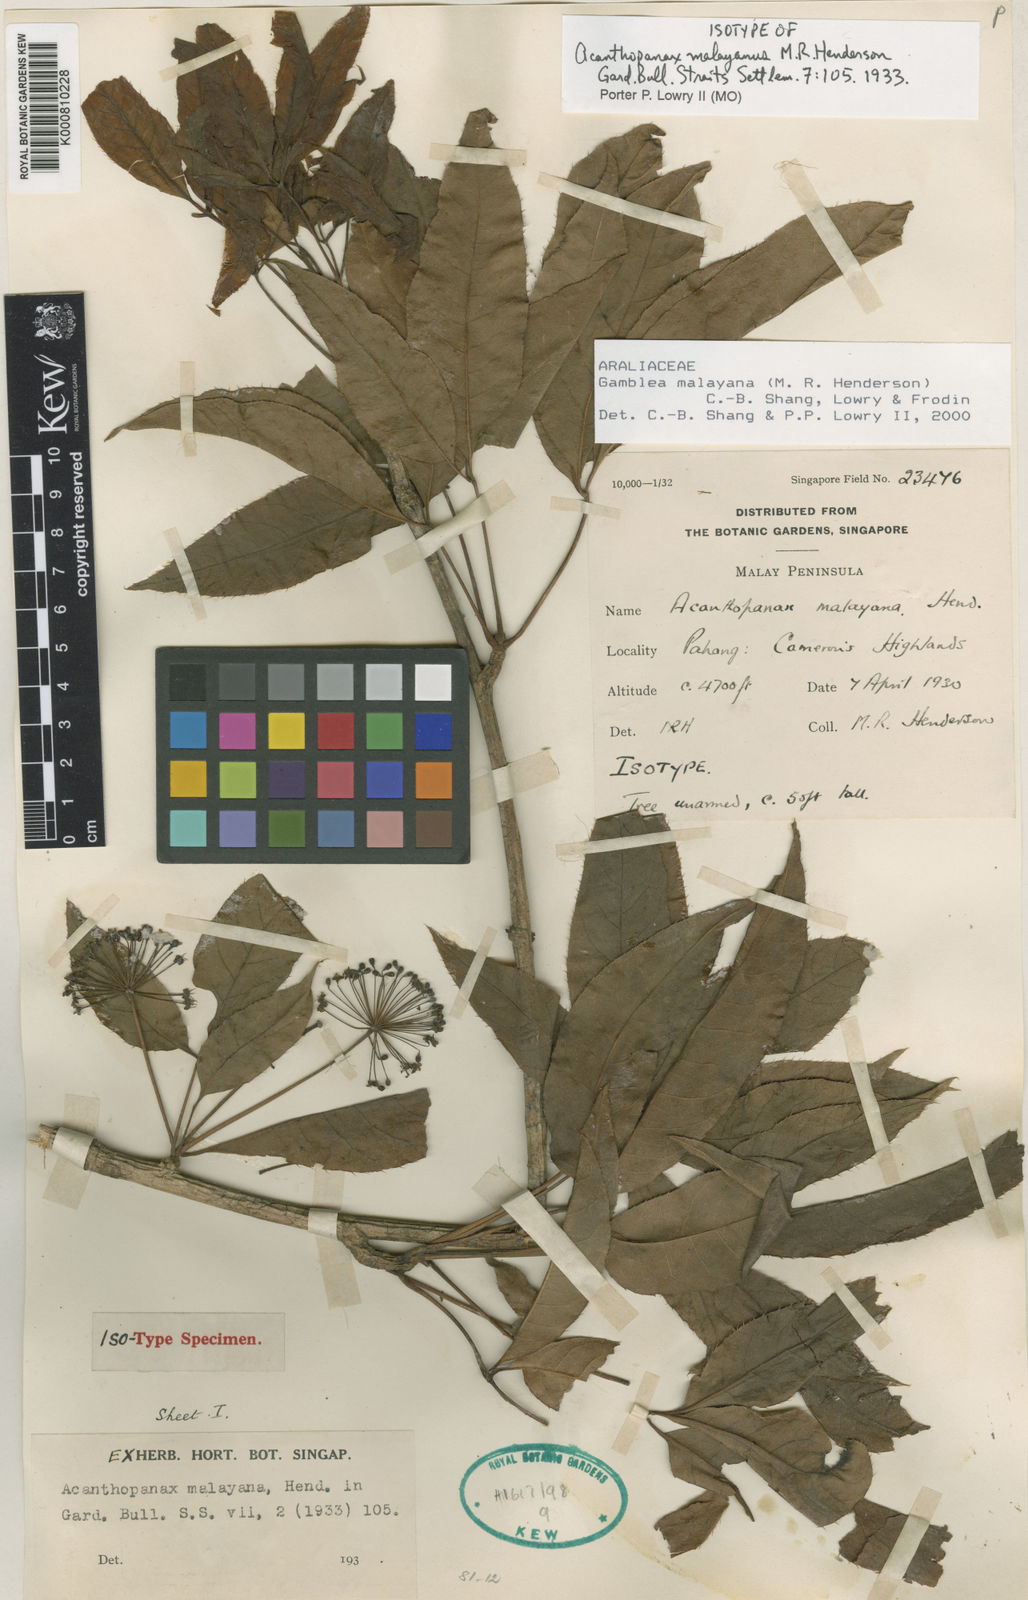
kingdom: Plantae
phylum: Tracheophyta
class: Magnoliopsida
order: Apiales
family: Araliaceae
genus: Gamblea
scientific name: Gamblea malayana
